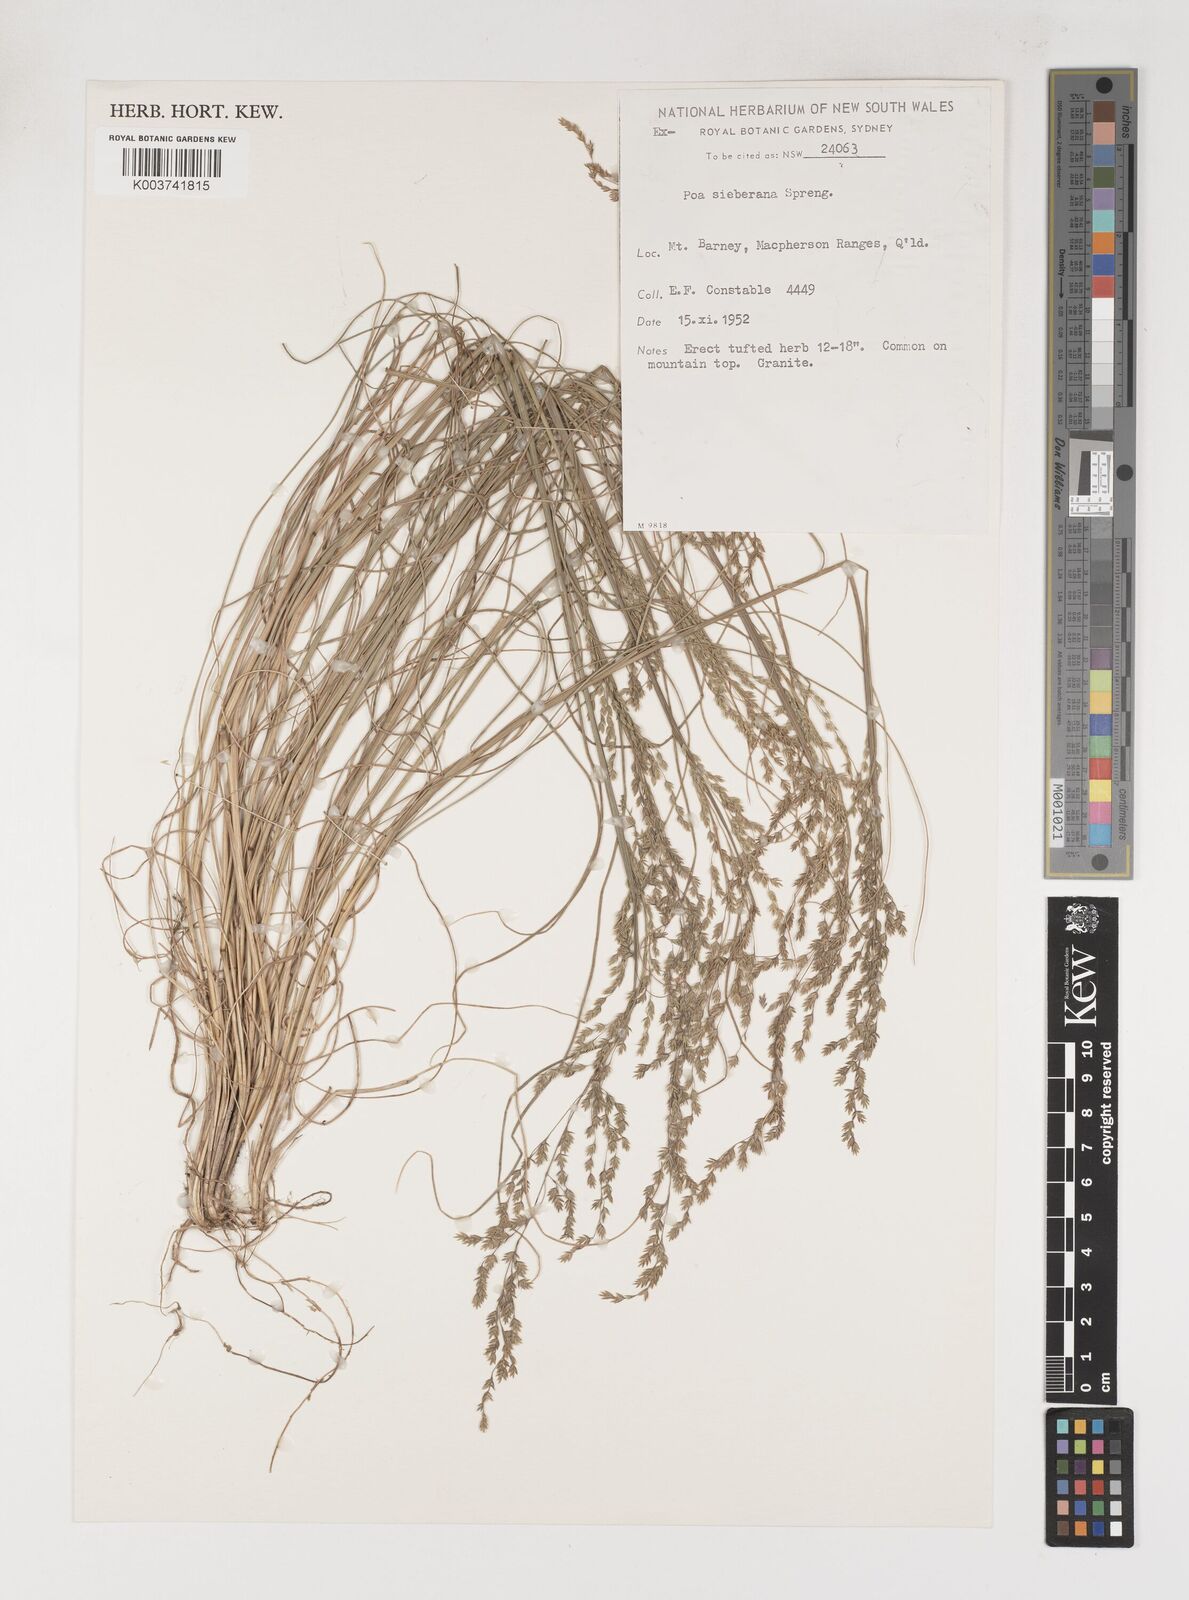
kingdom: Plantae
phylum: Tracheophyta
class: Liliopsida
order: Poales
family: Poaceae
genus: Poa
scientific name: Poa sieberiana
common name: Tussock poa
